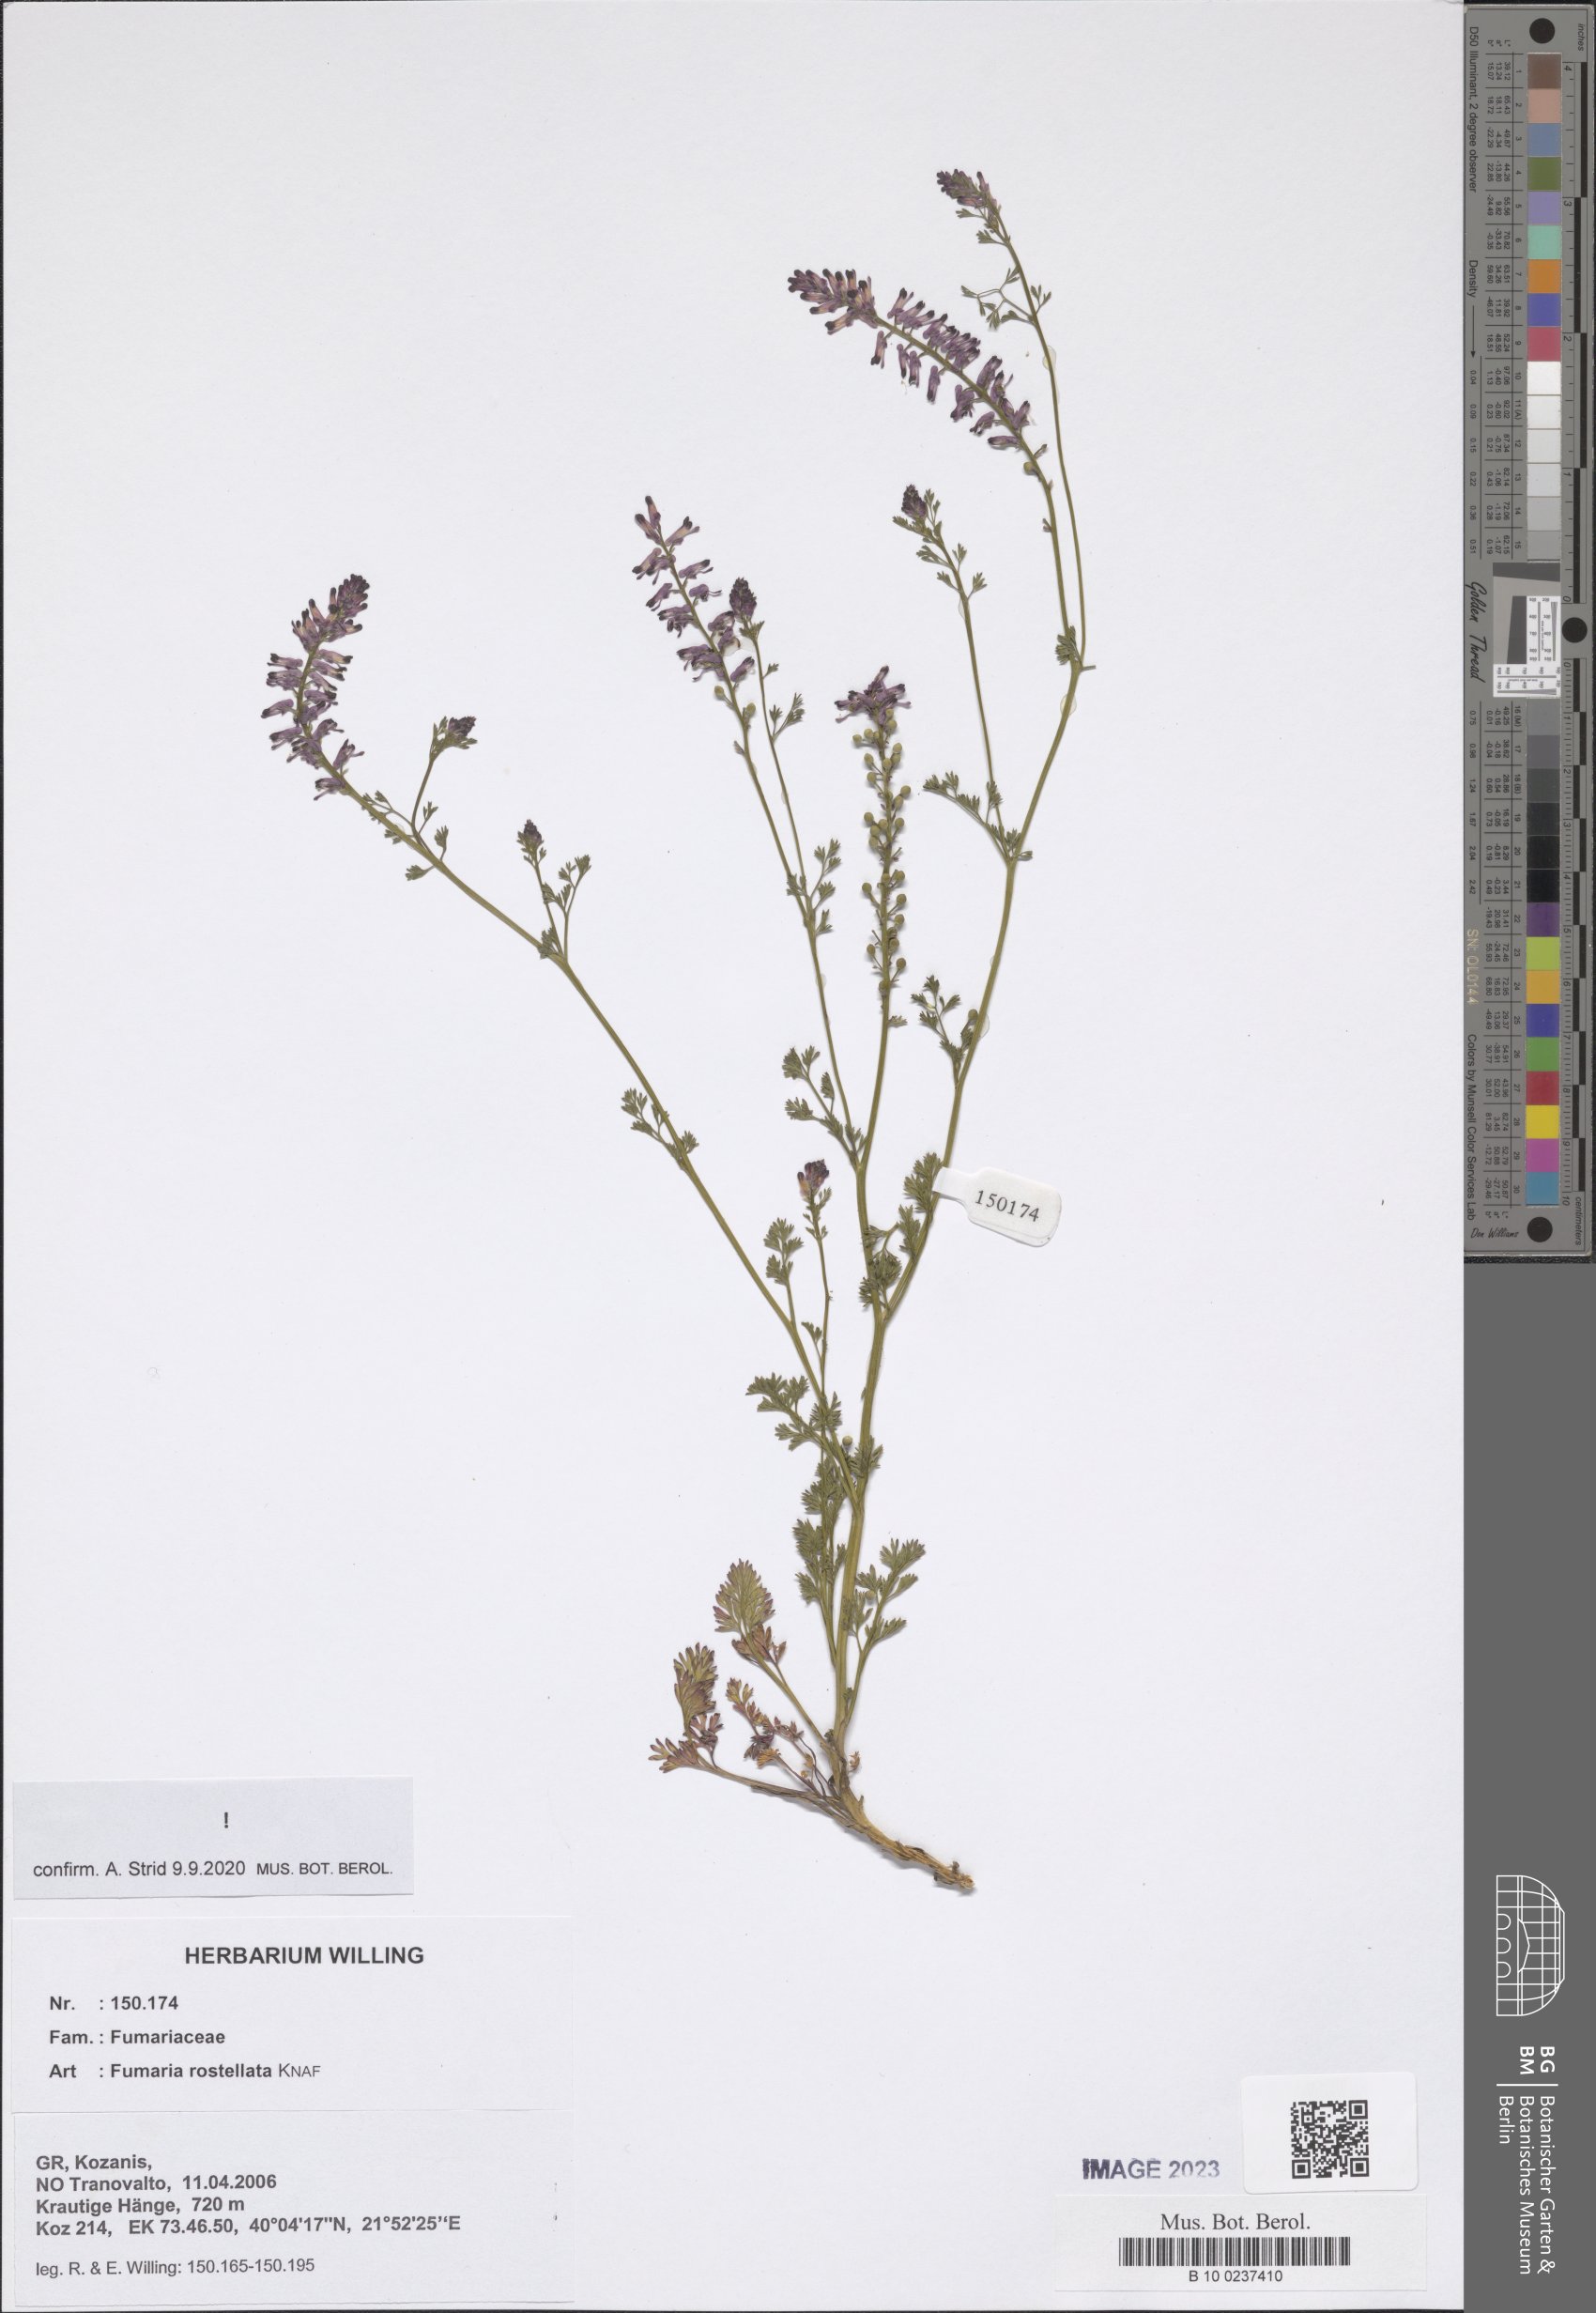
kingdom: Plantae
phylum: Tracheophyta
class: Magnoliopsida
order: Ranunculales
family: Papaveraceae
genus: Fumaria
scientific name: Fumaria rostellata
